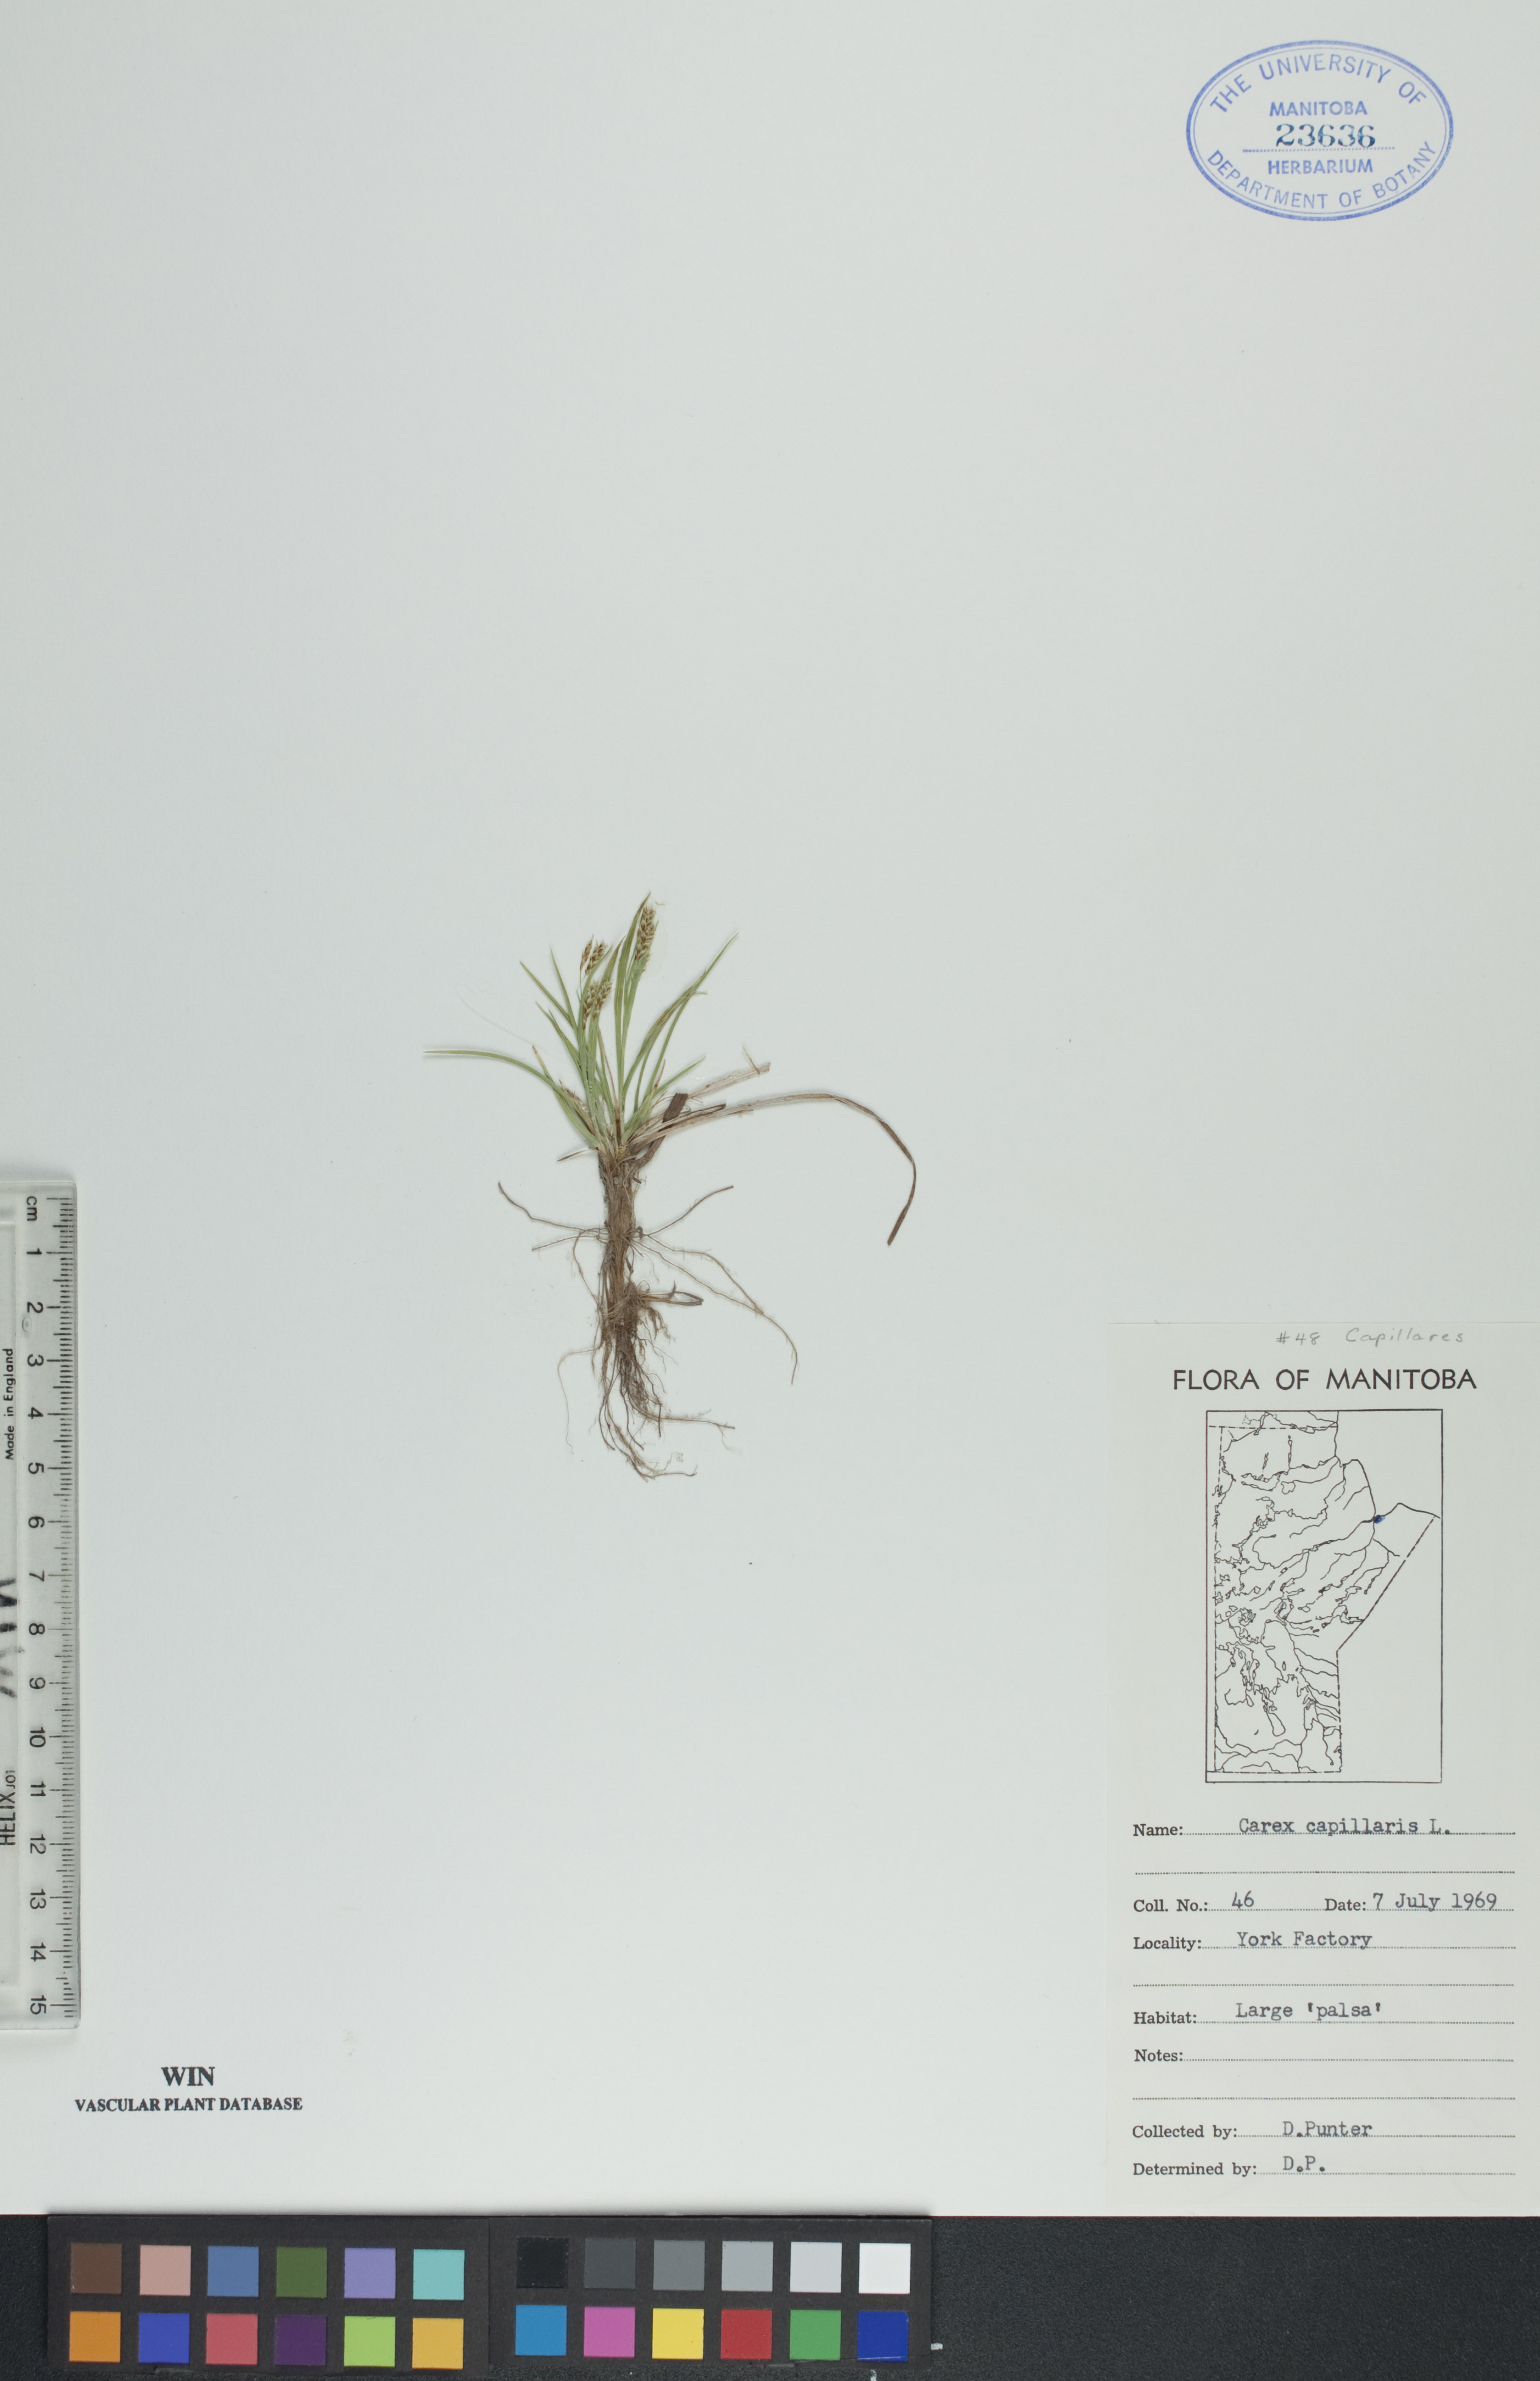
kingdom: Plantae
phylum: Tracheophyta
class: Liliopsida
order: Poales
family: Cyperaceae
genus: Carex
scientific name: Carex capillaris
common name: Hair sedge
